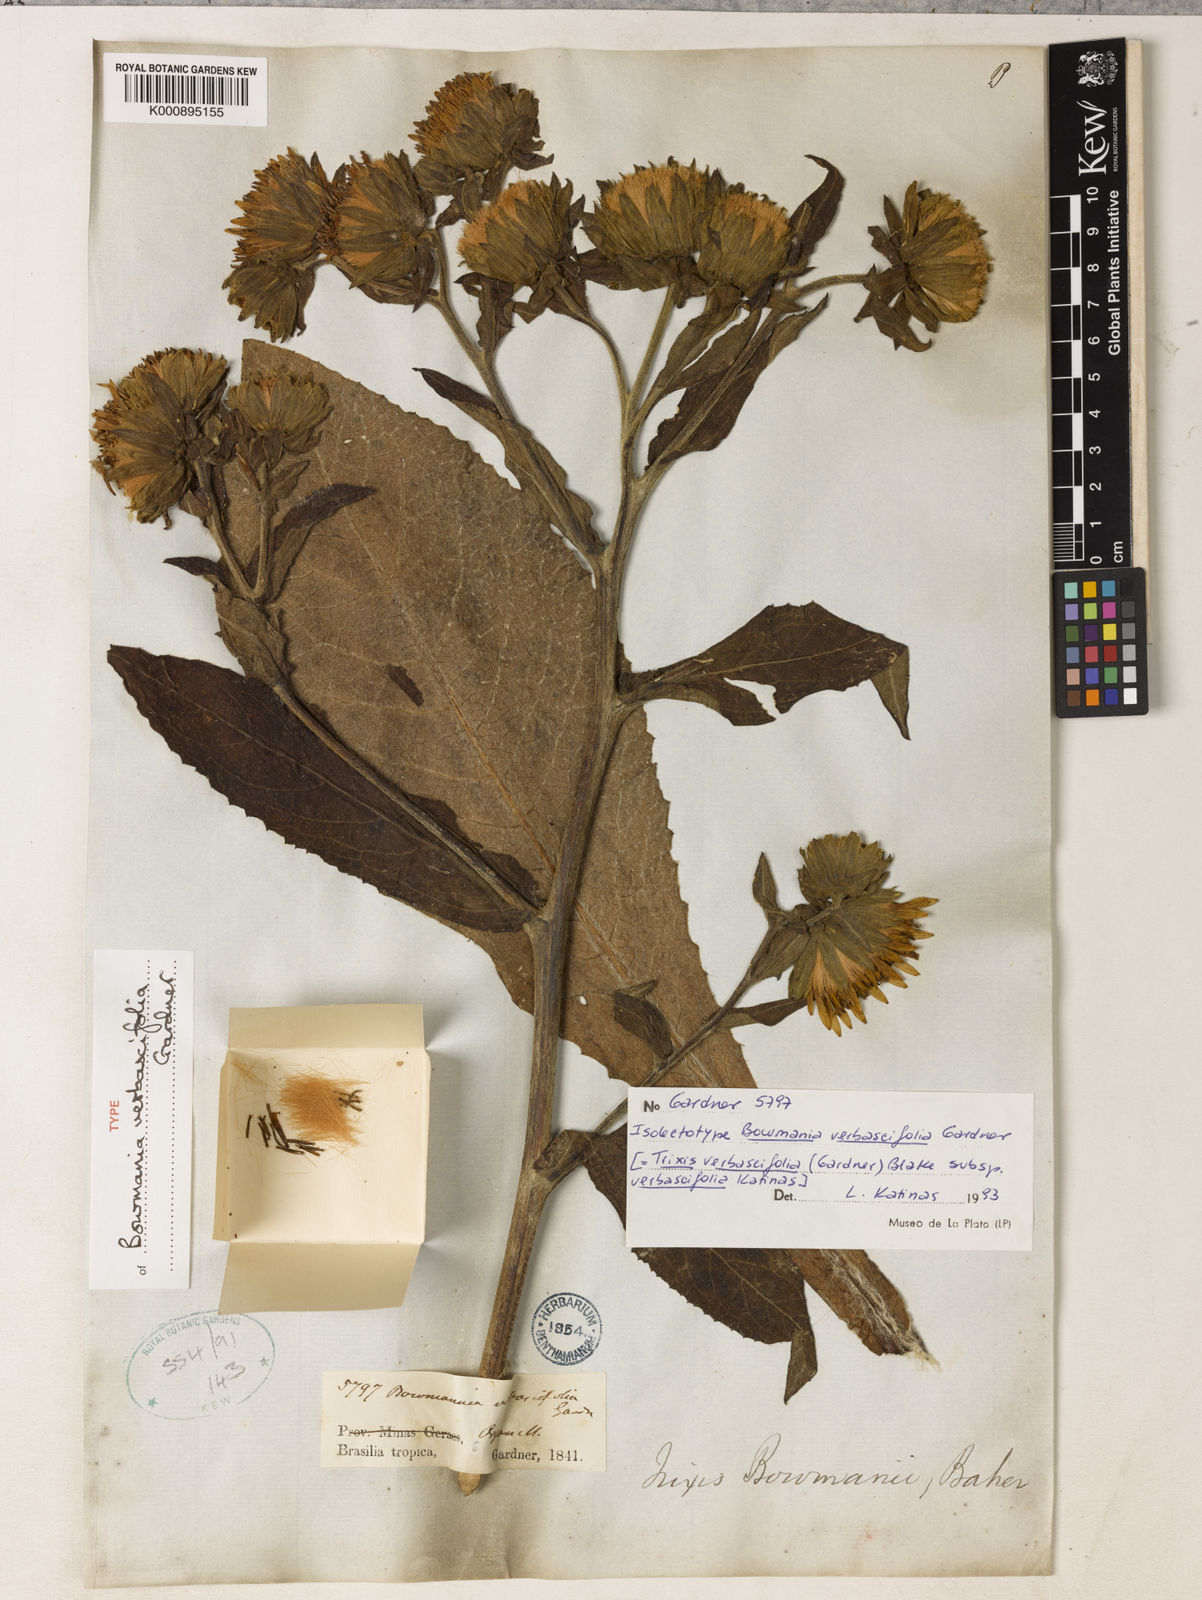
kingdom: Plantae
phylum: Tracheophyta
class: Magnoliopsida
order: Asterales
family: Asteraceae
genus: Trixis
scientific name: Trixis verbascifolia
